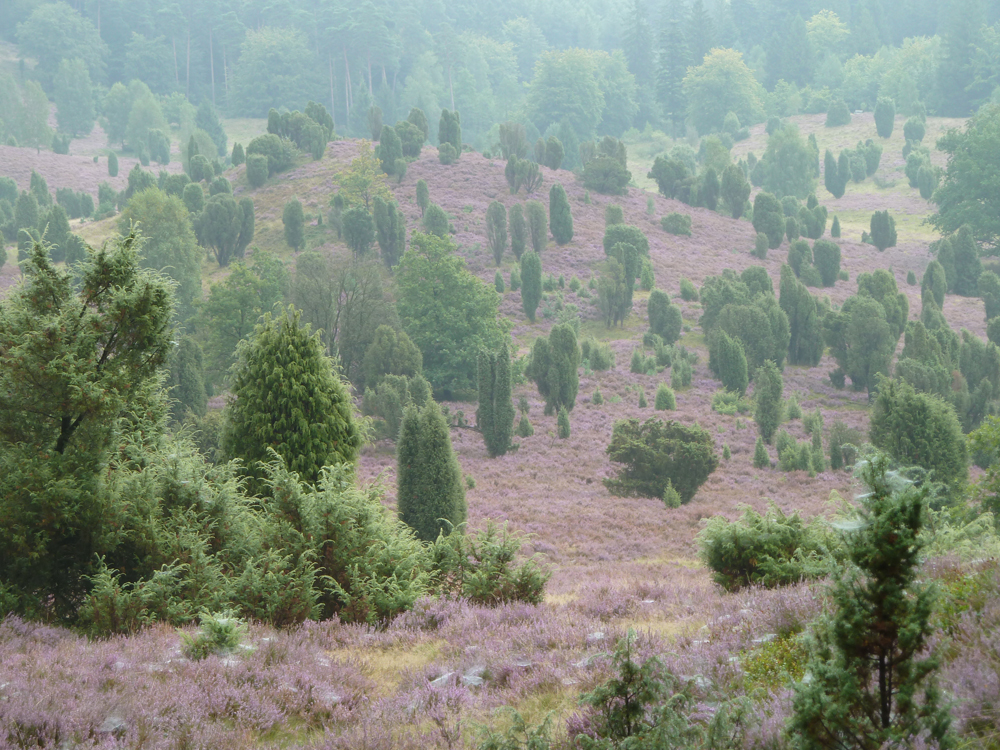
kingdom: Plantae
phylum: Tracheophyta
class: Pinopsida
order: Pinales
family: Cupressaceae
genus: Juniperus
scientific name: Juniperus communis
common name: Common juniper
